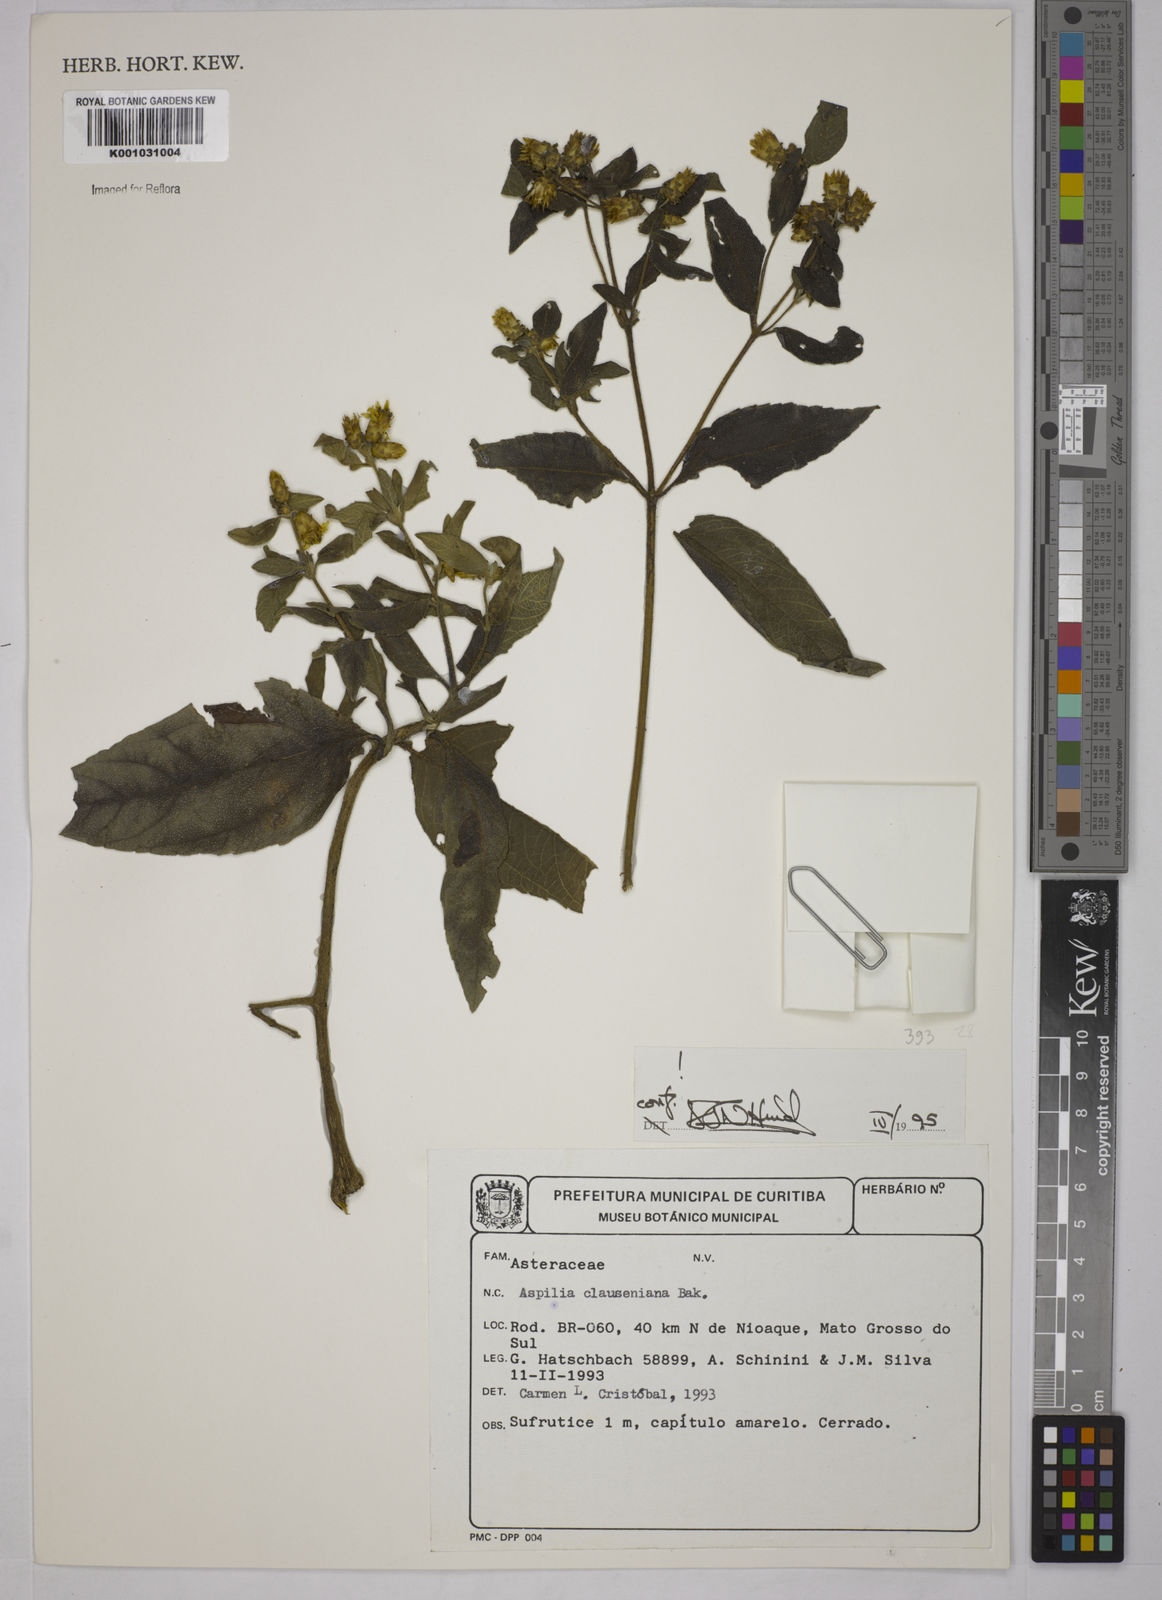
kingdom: Plantae
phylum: Tracheophyta
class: Magnoliopsida
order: Asterales
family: Asteraceae
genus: Aspilia
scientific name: Aspilia clausseniana
